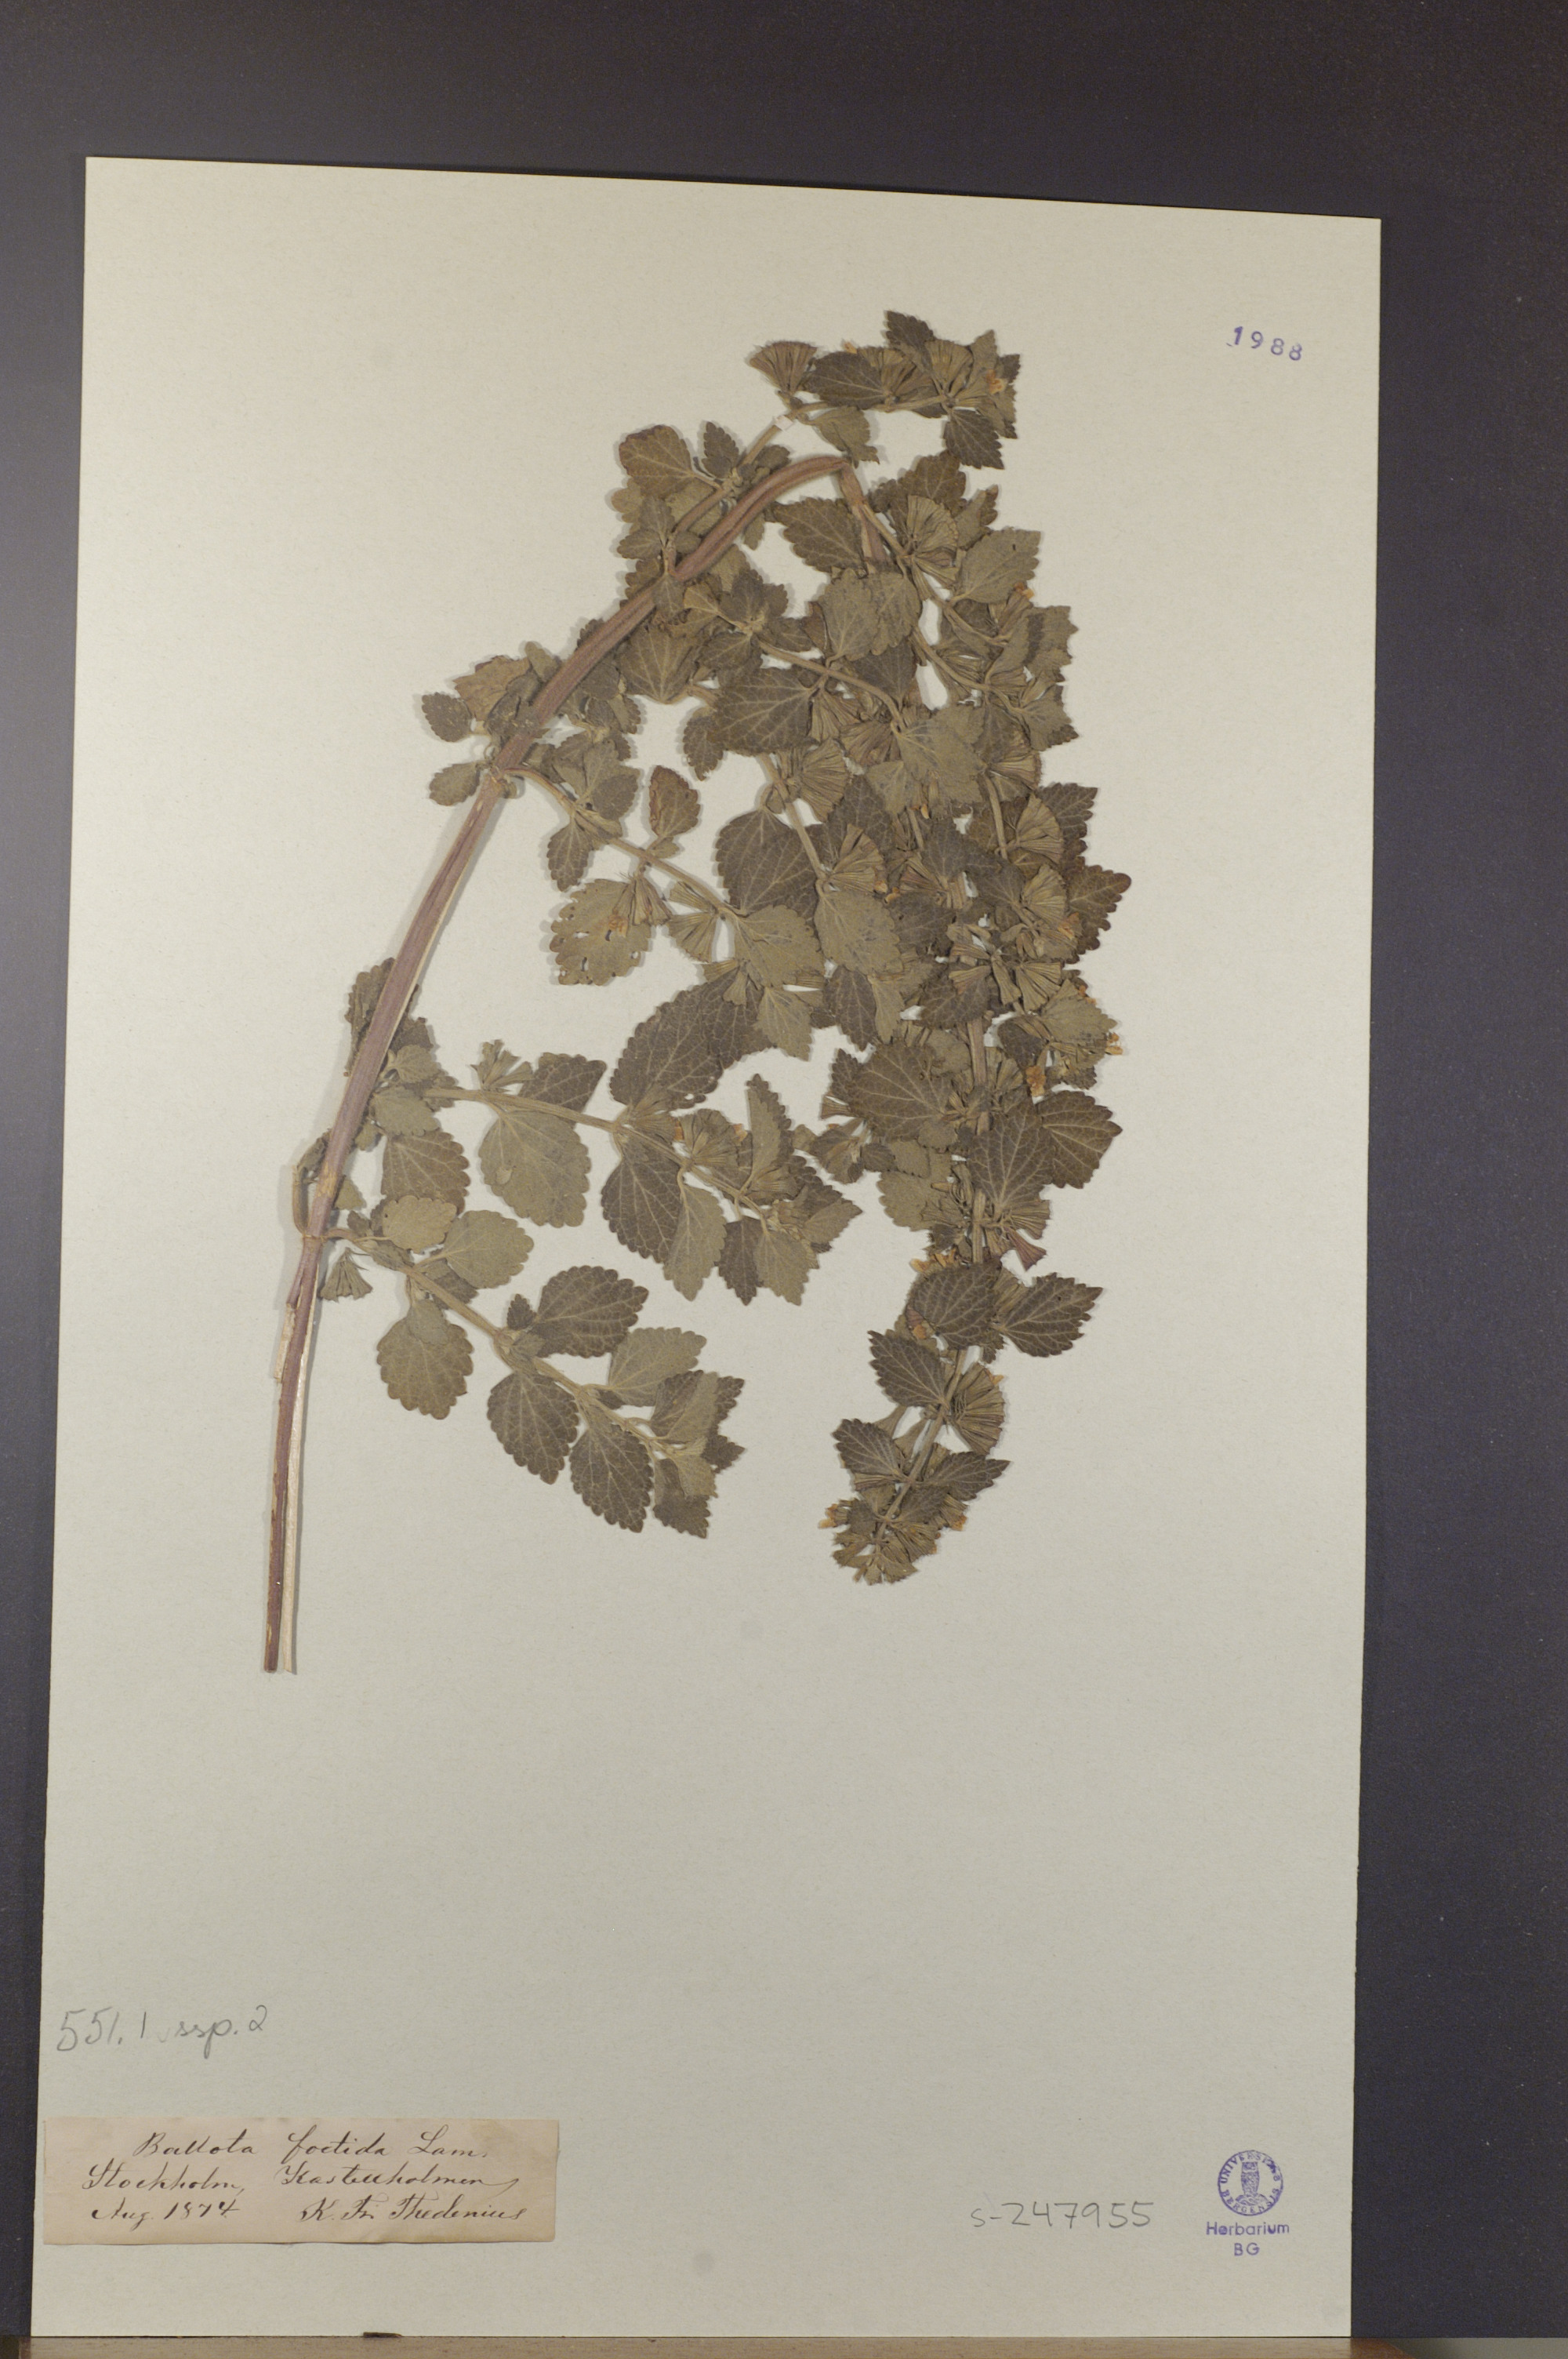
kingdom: Plantae
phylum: Tracheophyta
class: Magnoliopsida
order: Lamiales
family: Lamiaceae
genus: Ballota
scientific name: Ballota nigra
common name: Black horehound
